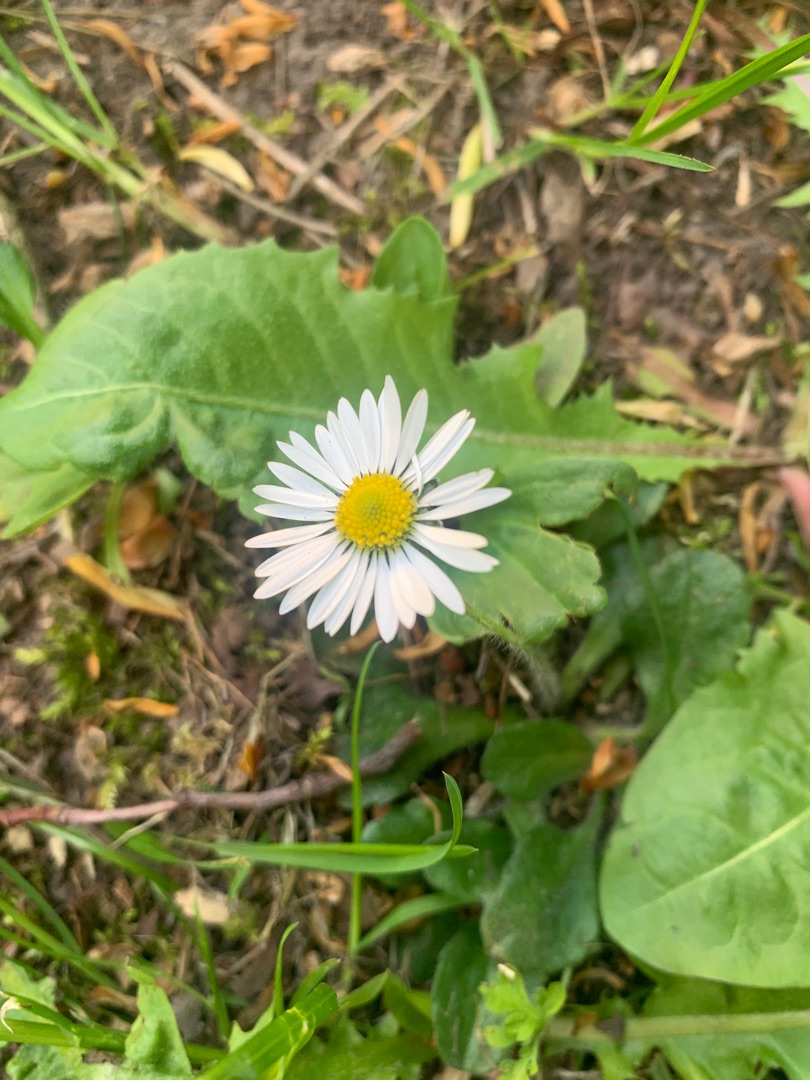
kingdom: Plantae
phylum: Tracheophyta
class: Magnoliopsida
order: Asterales
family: Asteraceae
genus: Bellis
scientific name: Bellis perennis
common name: Tusindfryd
